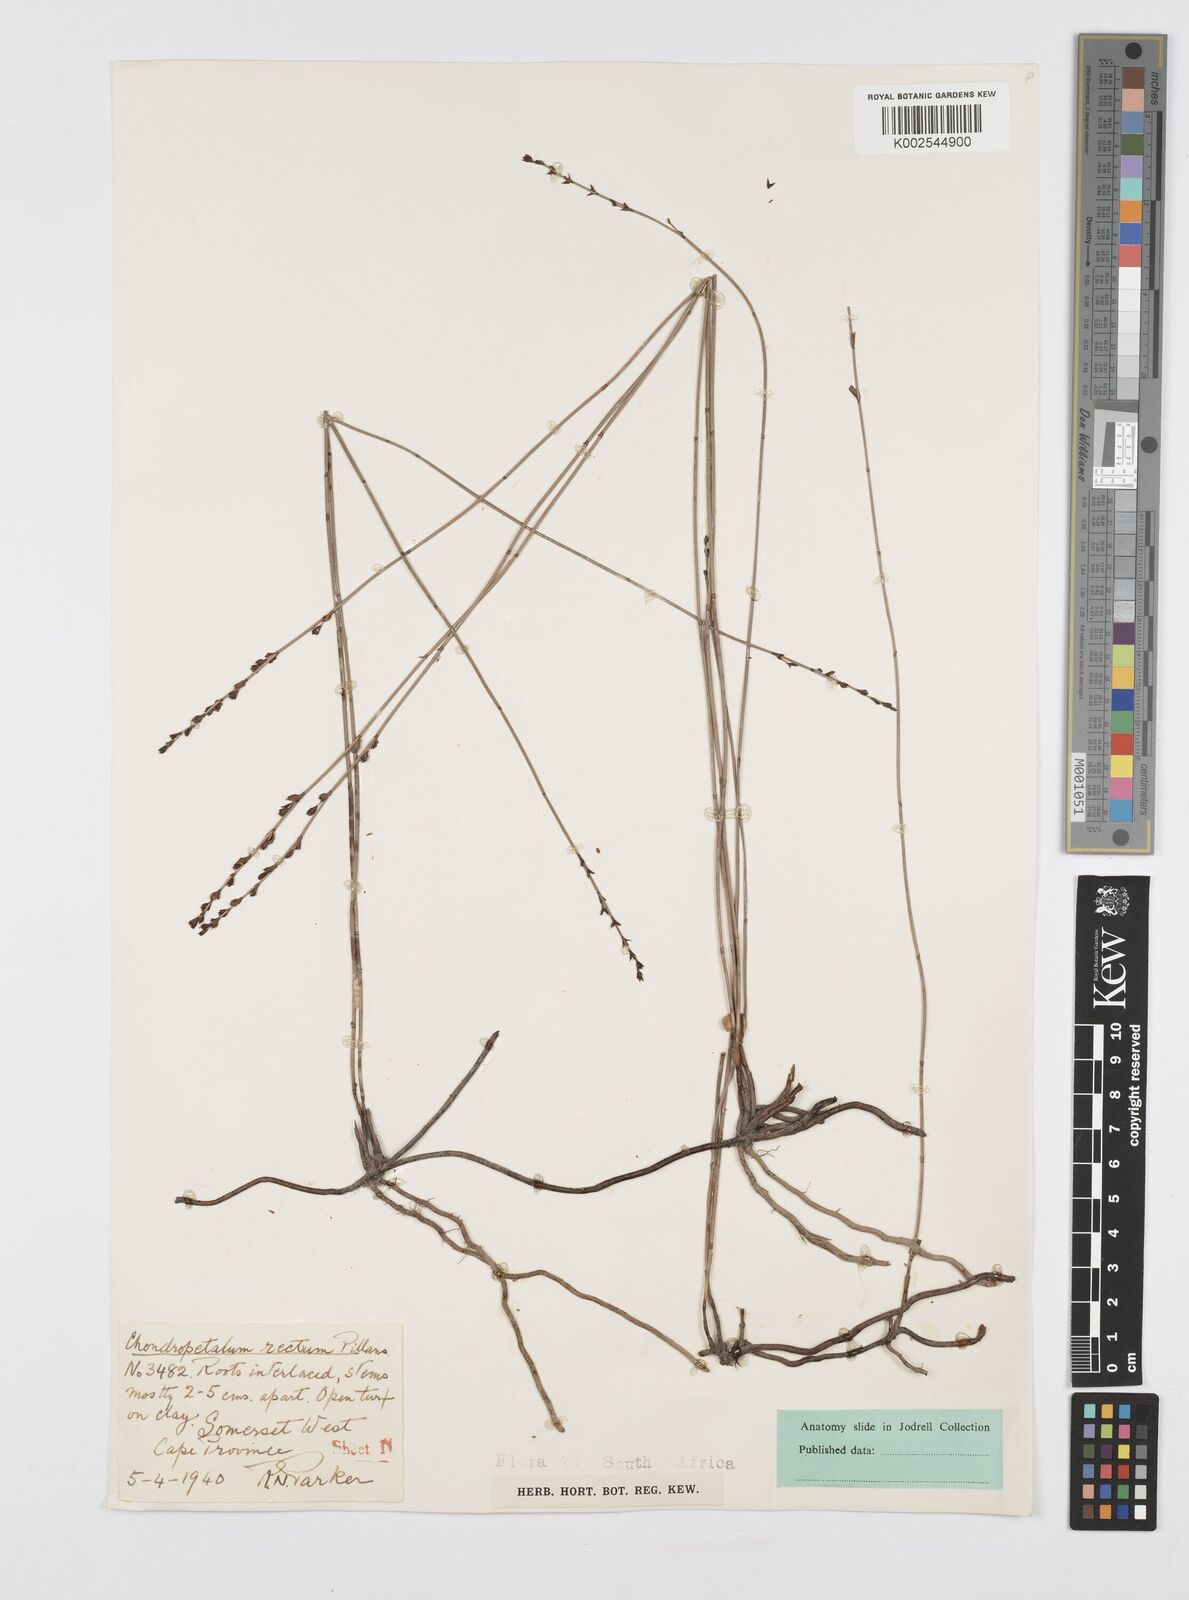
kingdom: Plantae
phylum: Tracheophyta
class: Liliopsida
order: Poales
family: Restionaceae
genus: Elegia
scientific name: Elegia recta
